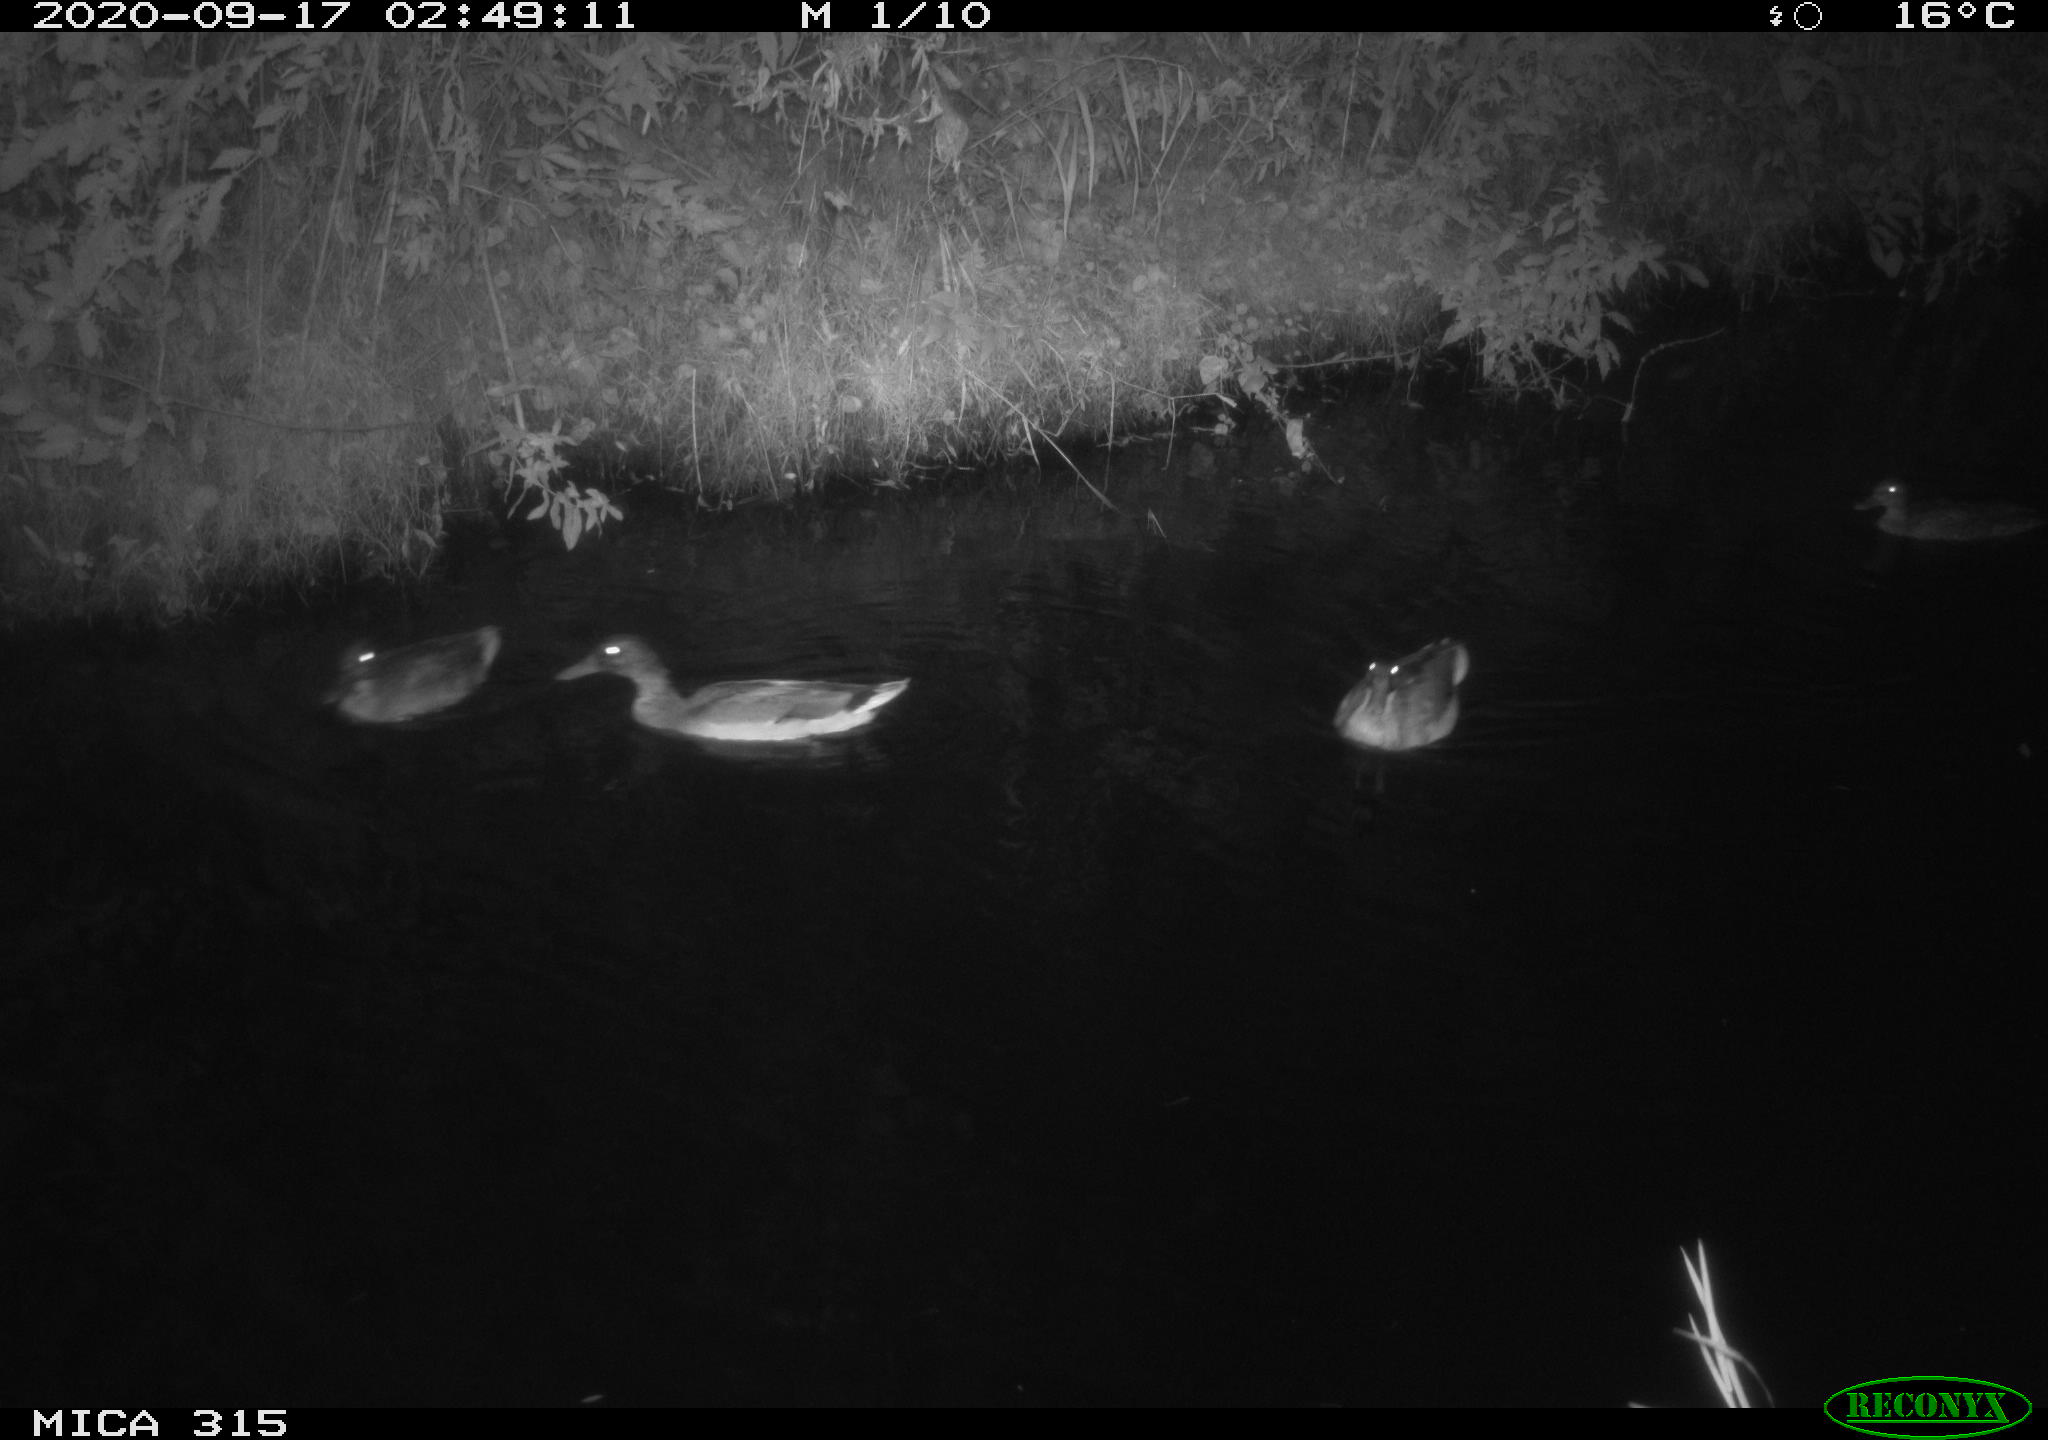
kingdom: Animalia
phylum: Chordata
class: Aves
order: Anseriformes
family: Anatidae
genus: Anas
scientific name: Anas platyrhynchos
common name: Mallard
